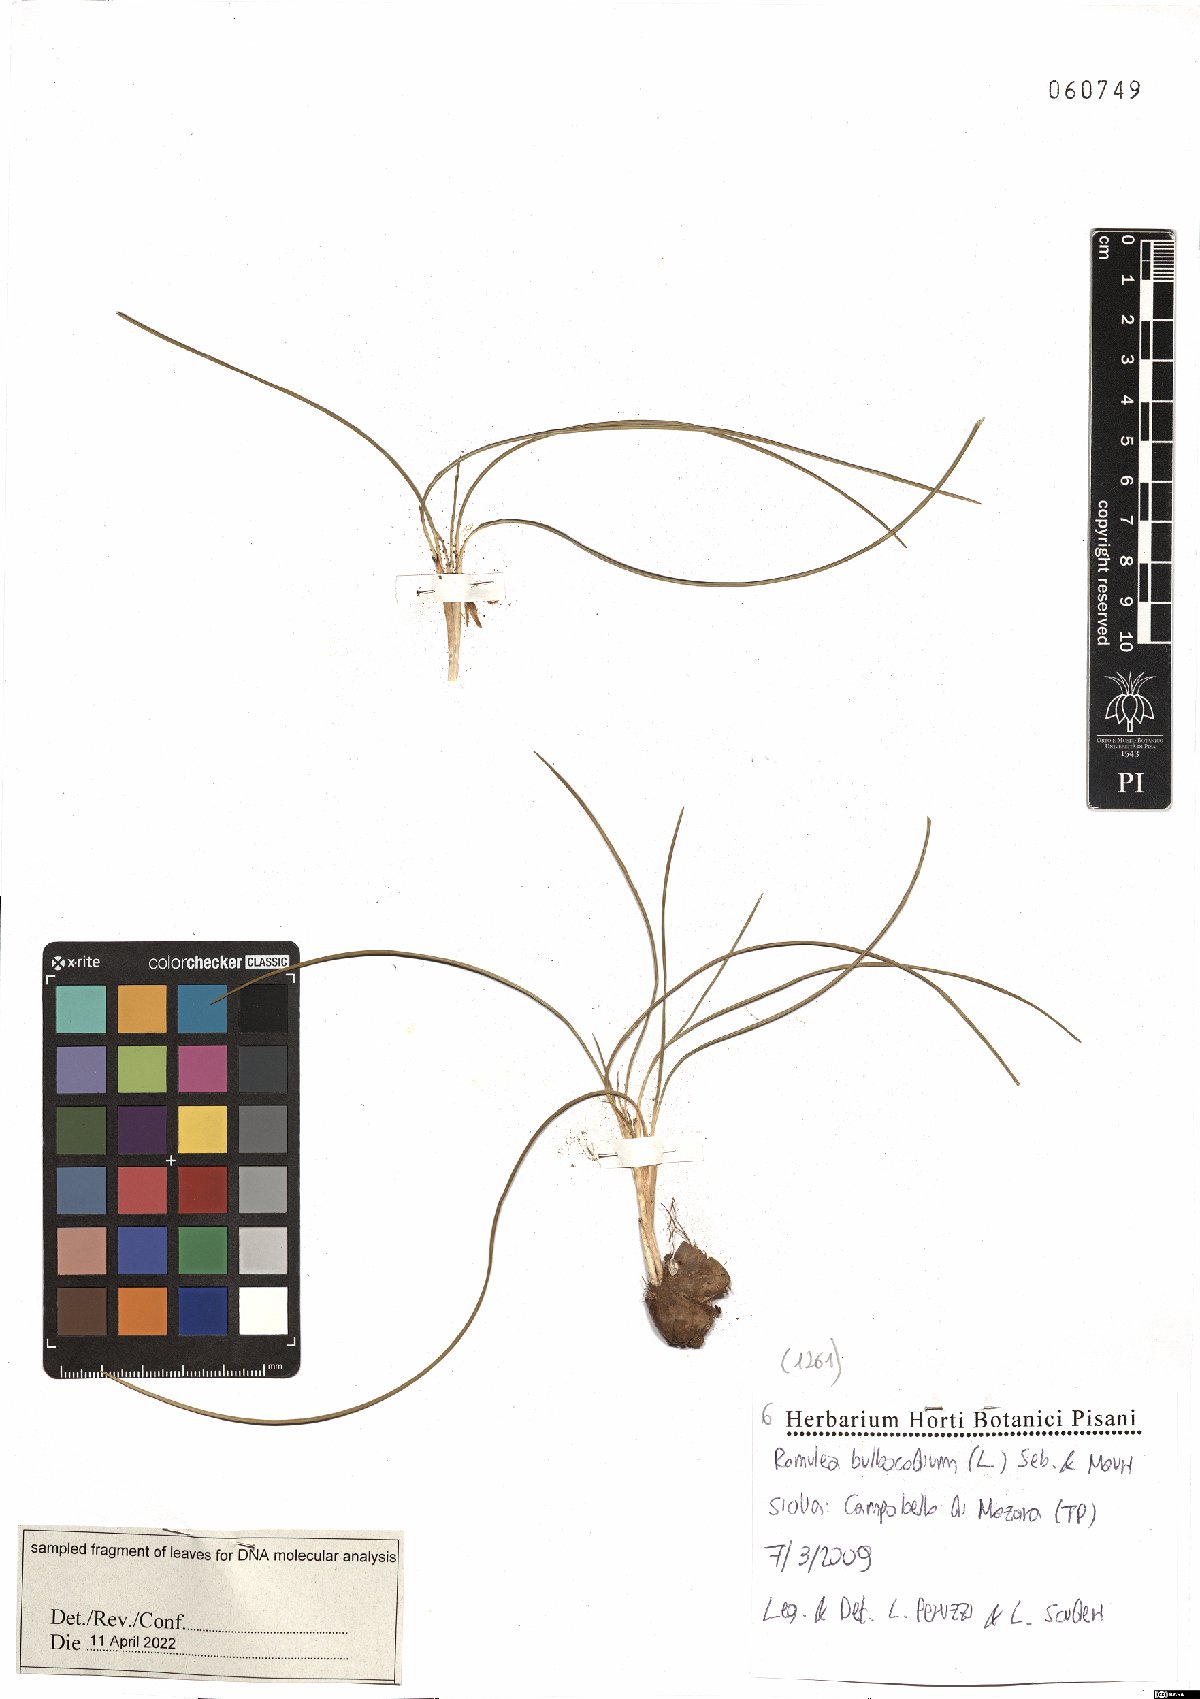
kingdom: Plantae
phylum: Tracheophyta
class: Liliopsida
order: Asparagales
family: Iridaceae
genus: Romulea
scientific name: Romulea bulbocodium
